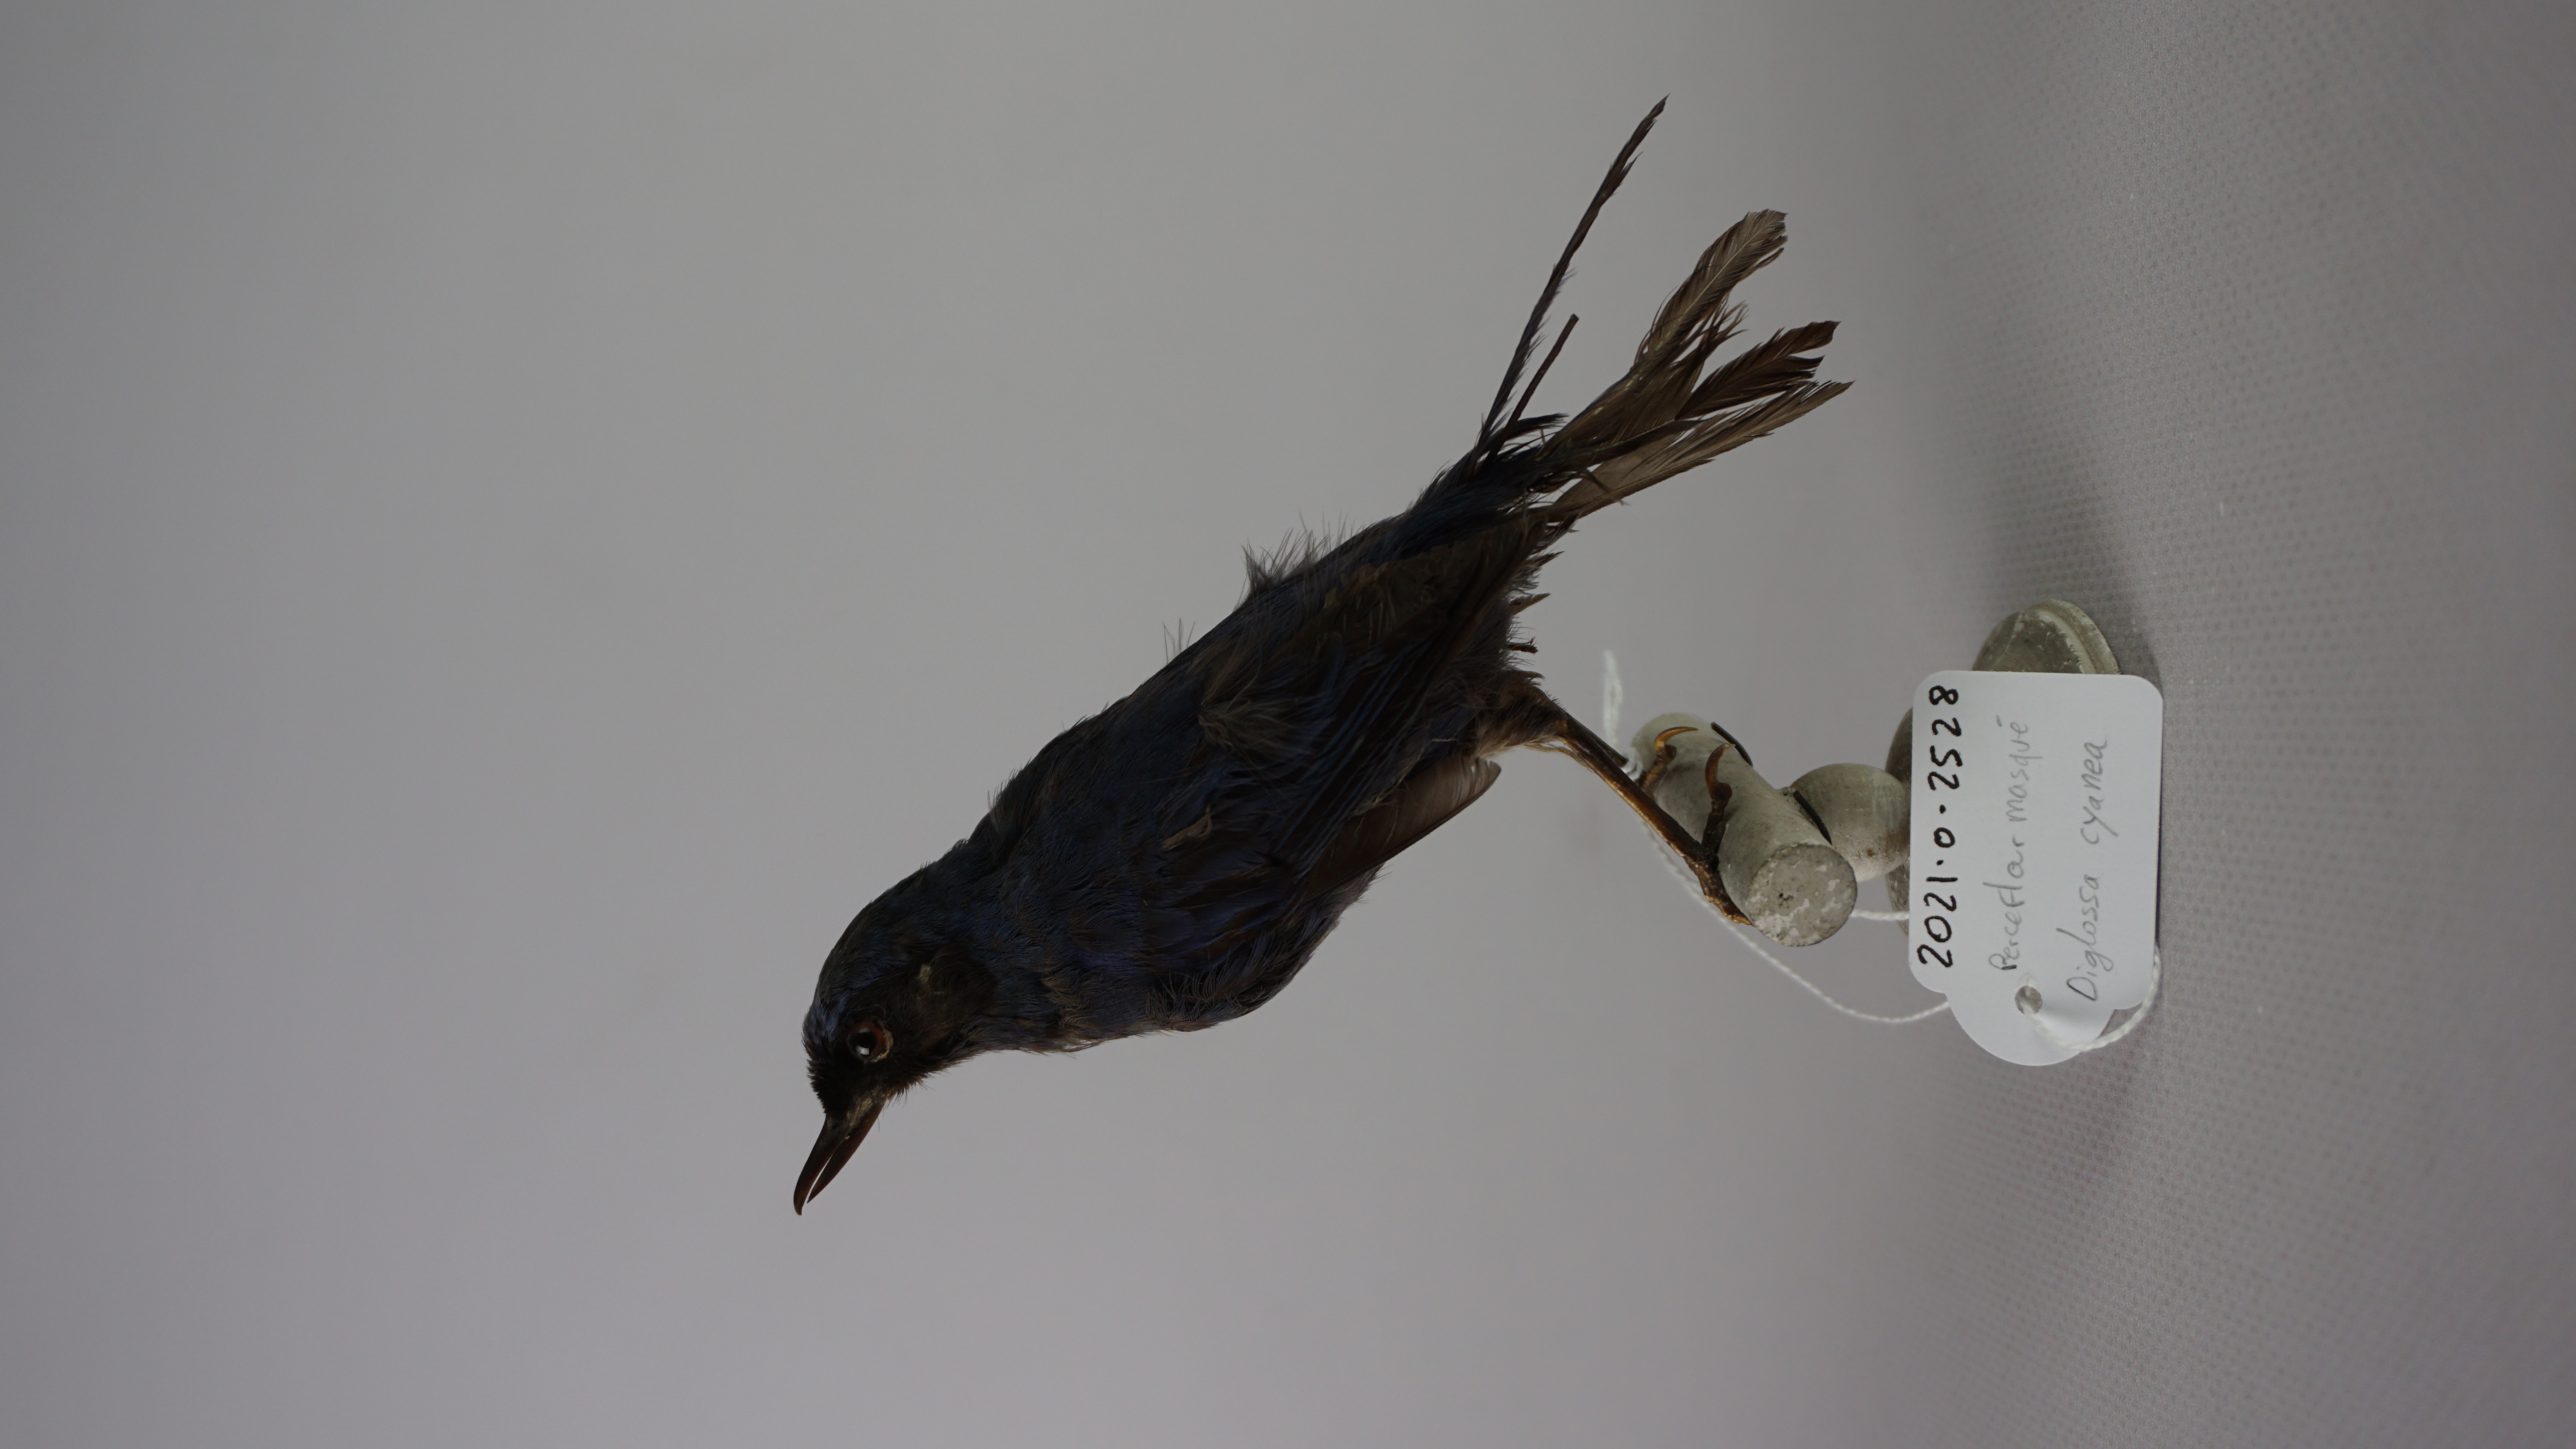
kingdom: Animalia
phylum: Chordata
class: Aves
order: Passeriformes
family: Thraupidae
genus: Diglossa
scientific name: Diglossa cyanea
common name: Masked flowerpiercer
